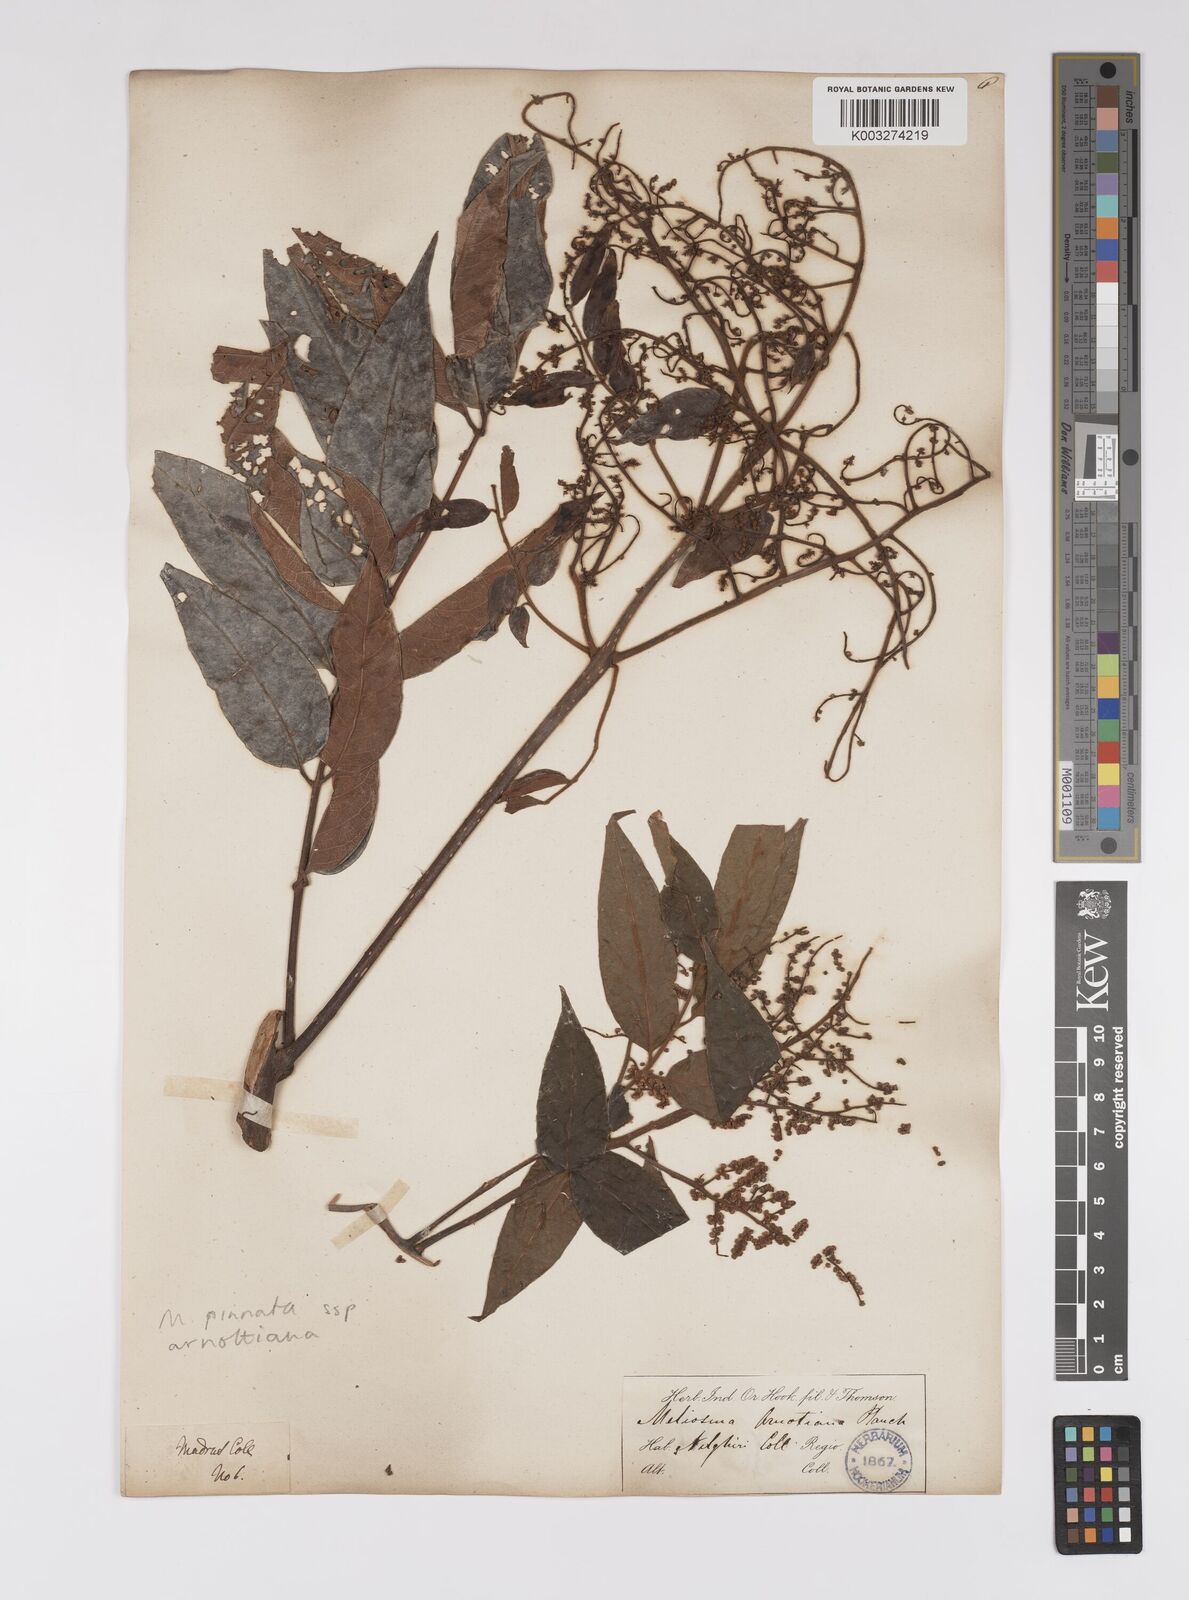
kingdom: Plantae
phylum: Tracheophyta
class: Magnoliopsida
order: Proteales
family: Sabiaceae
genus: Meliosma
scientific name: Meliosma rhoifolia
